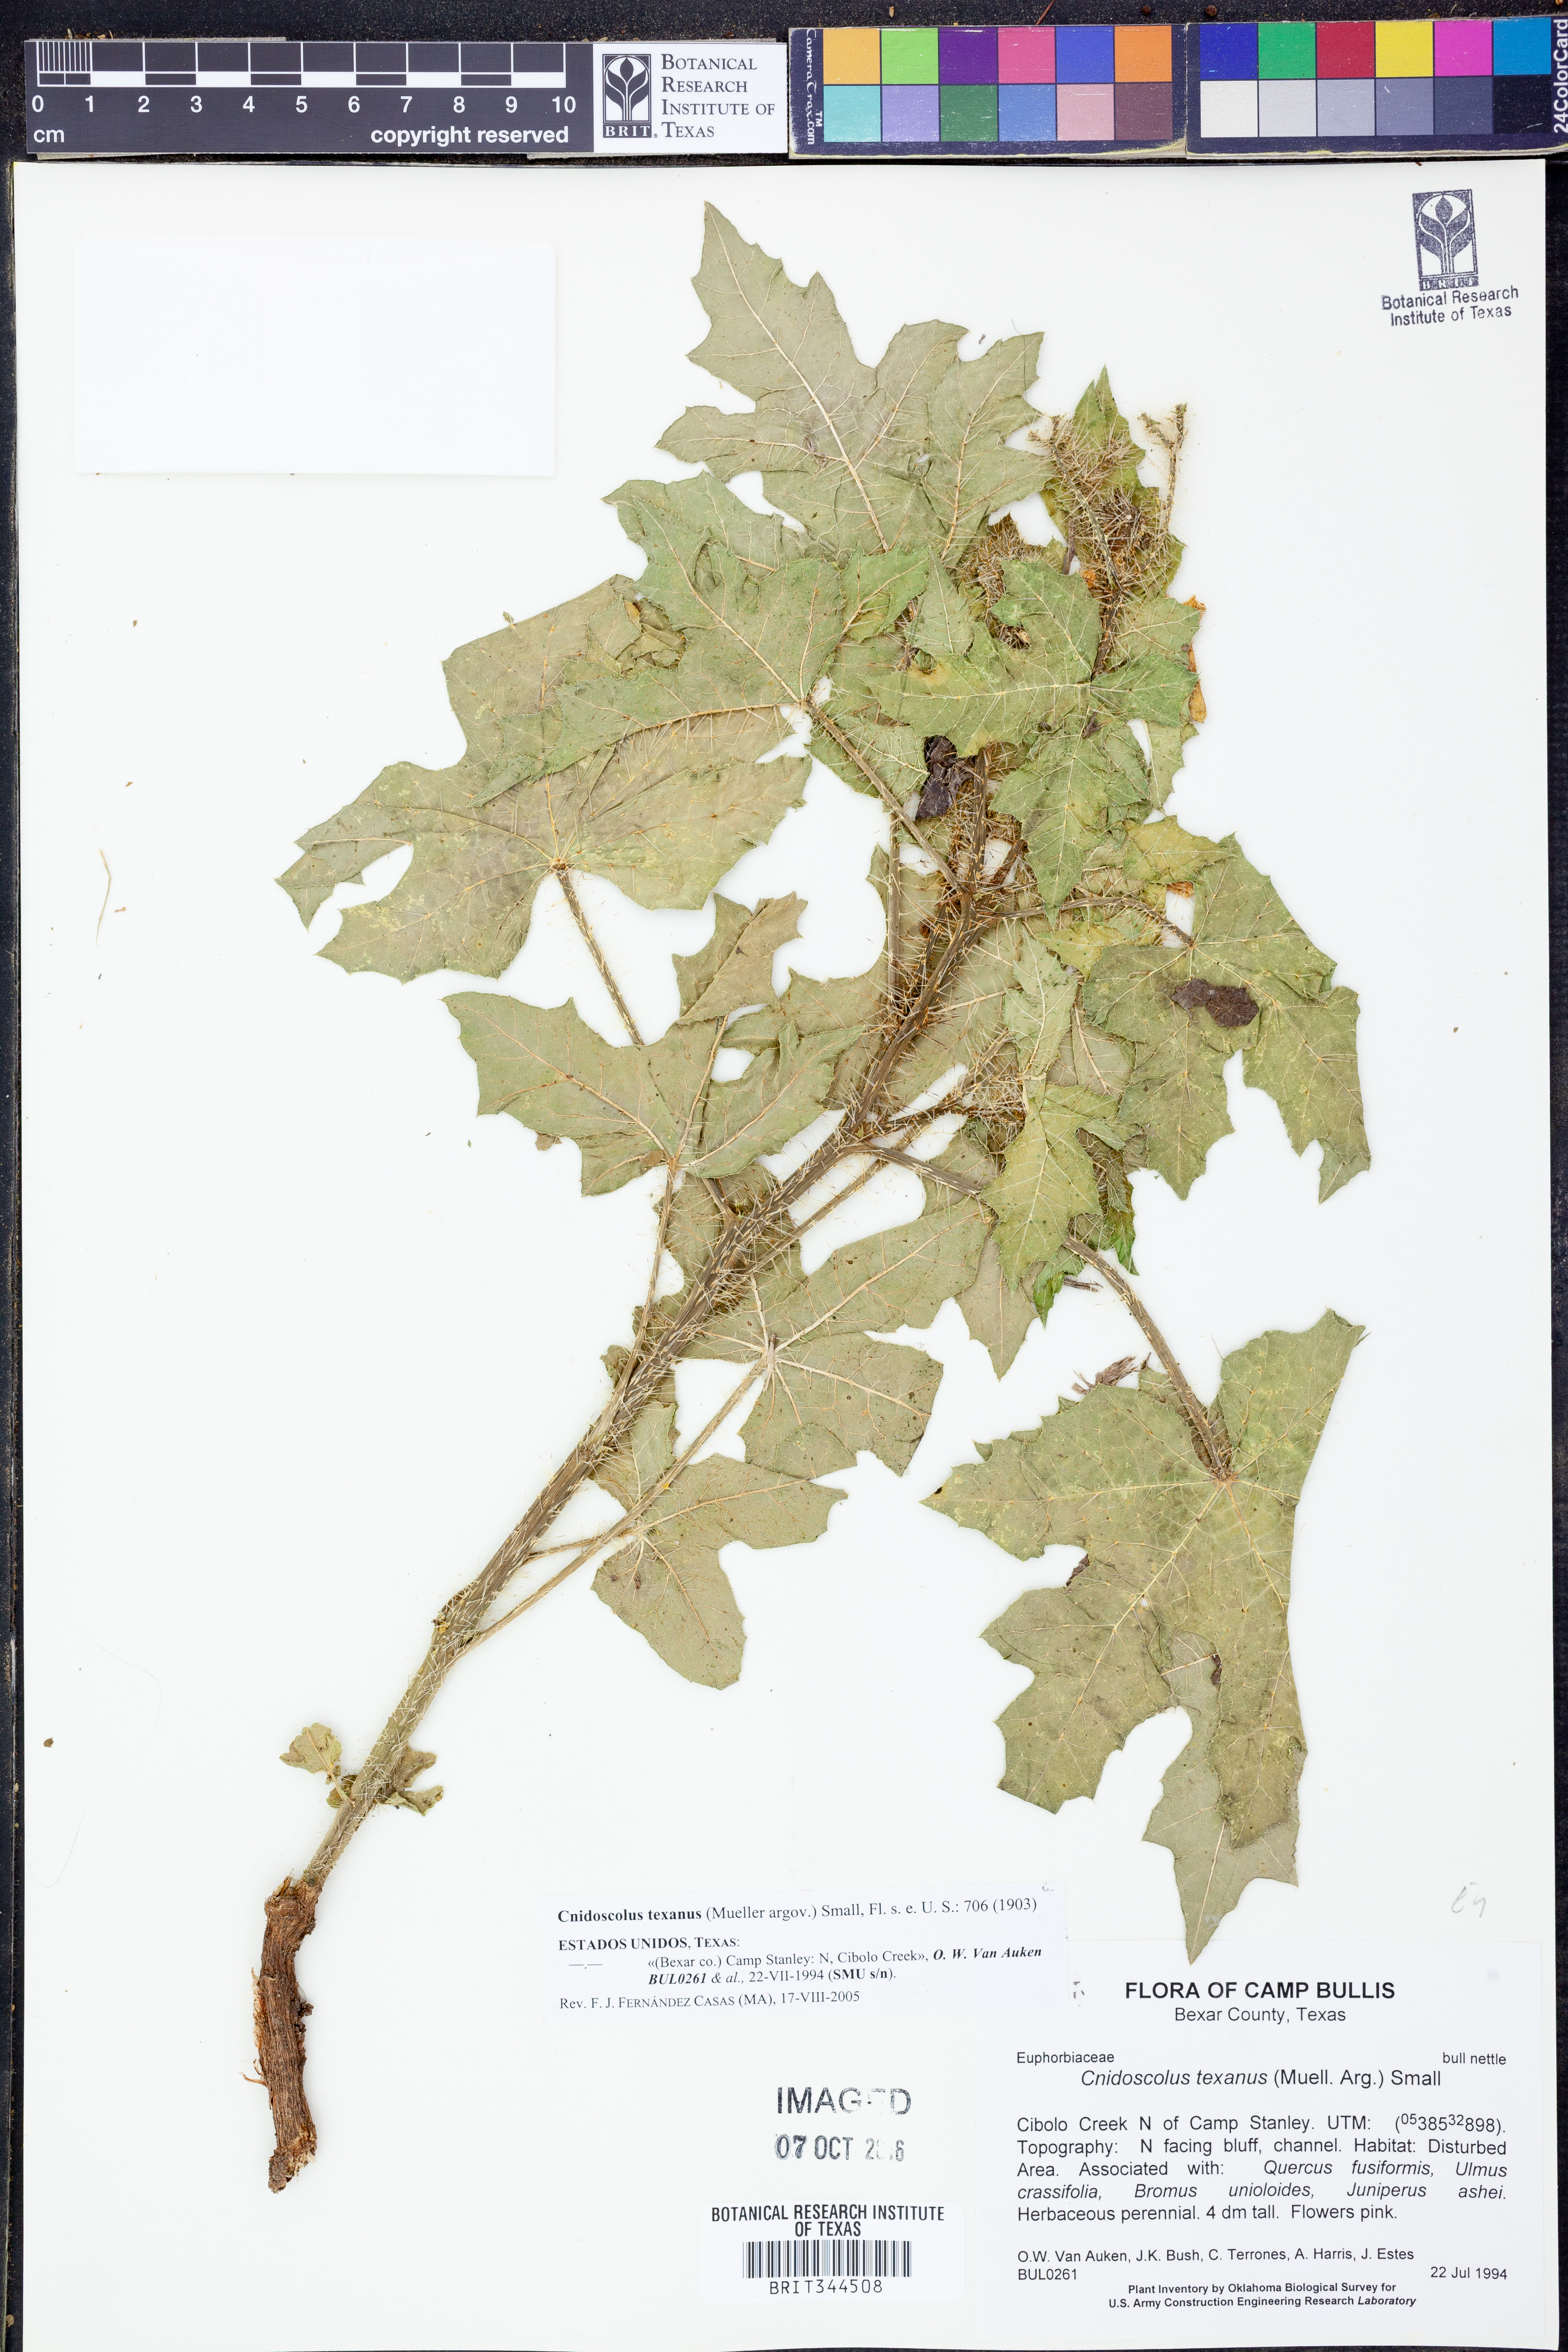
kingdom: Plantae
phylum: Tracheophyta
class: Magnoliopsida
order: Malpighiales
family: Euphorbiaceae
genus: Cnidoscolus
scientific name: Cnidoscolus texanus
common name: Texas bull-nettle
